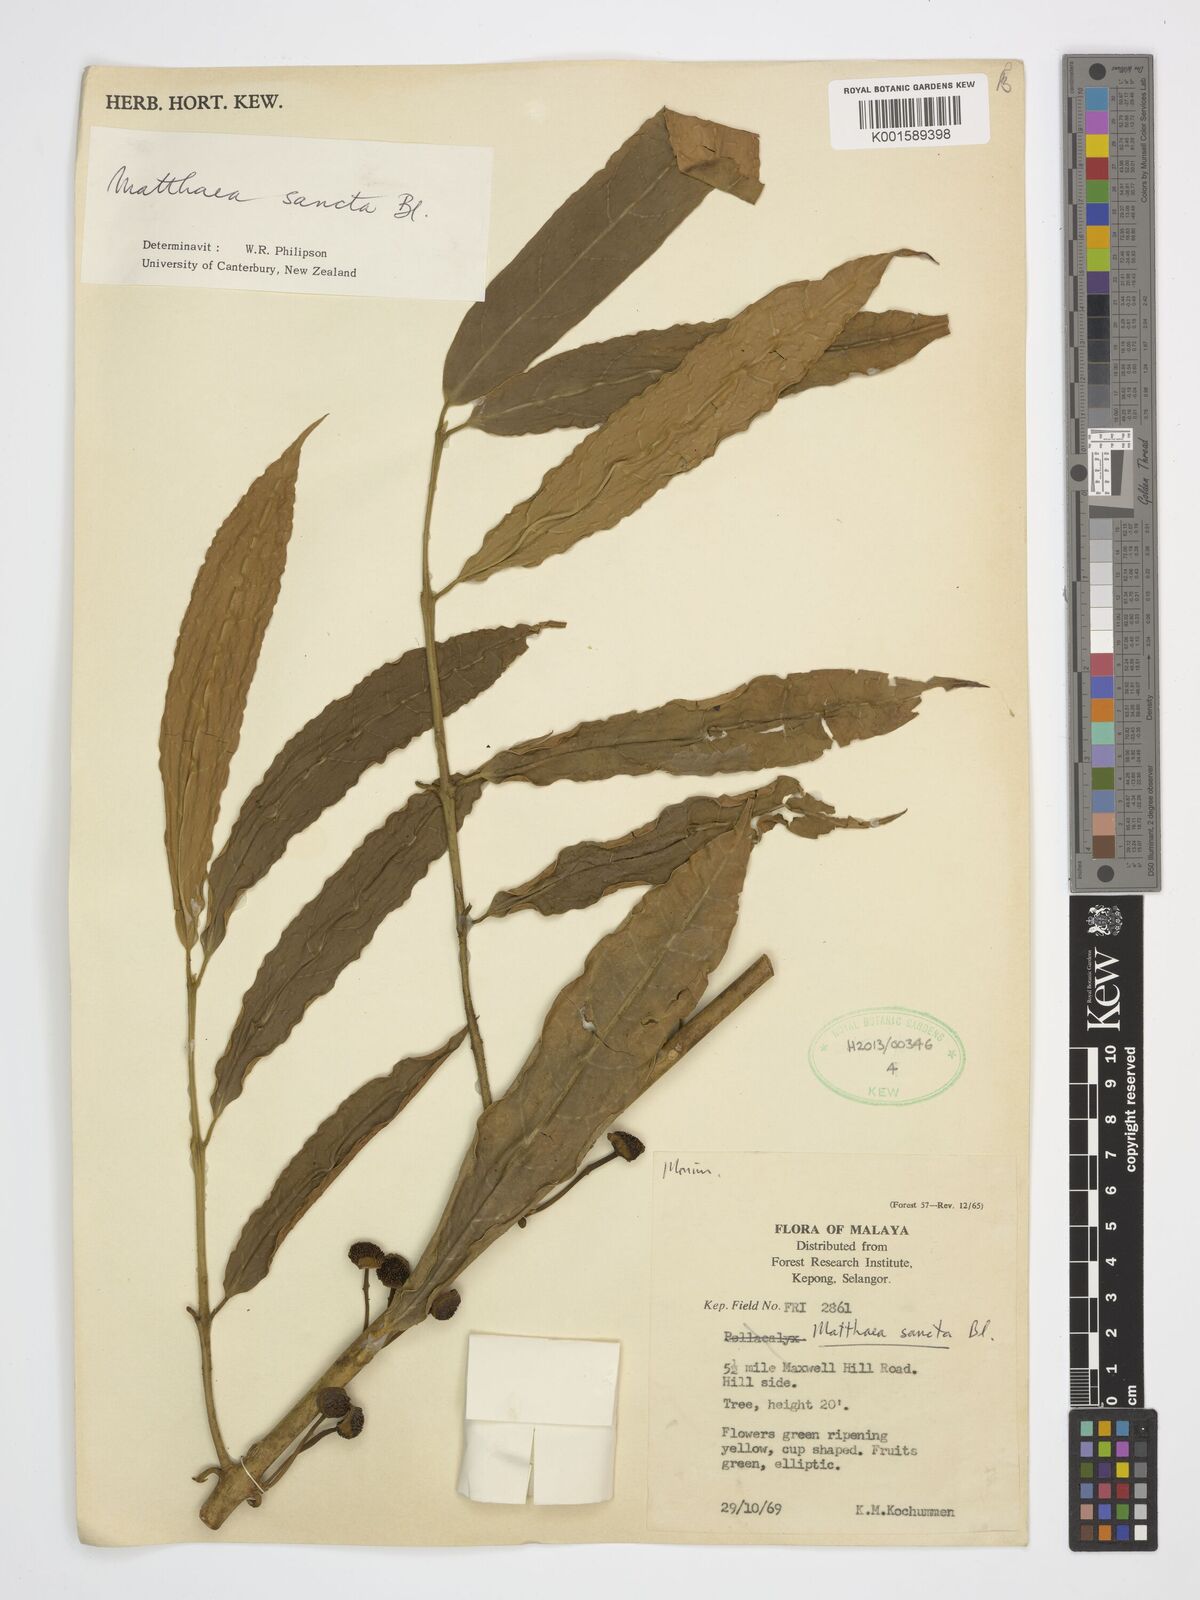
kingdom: Plantae
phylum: Tracheophyta
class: Magnoliopsida
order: Laurales
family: Monimiaceae
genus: Matthaea
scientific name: Matthaea sancta
